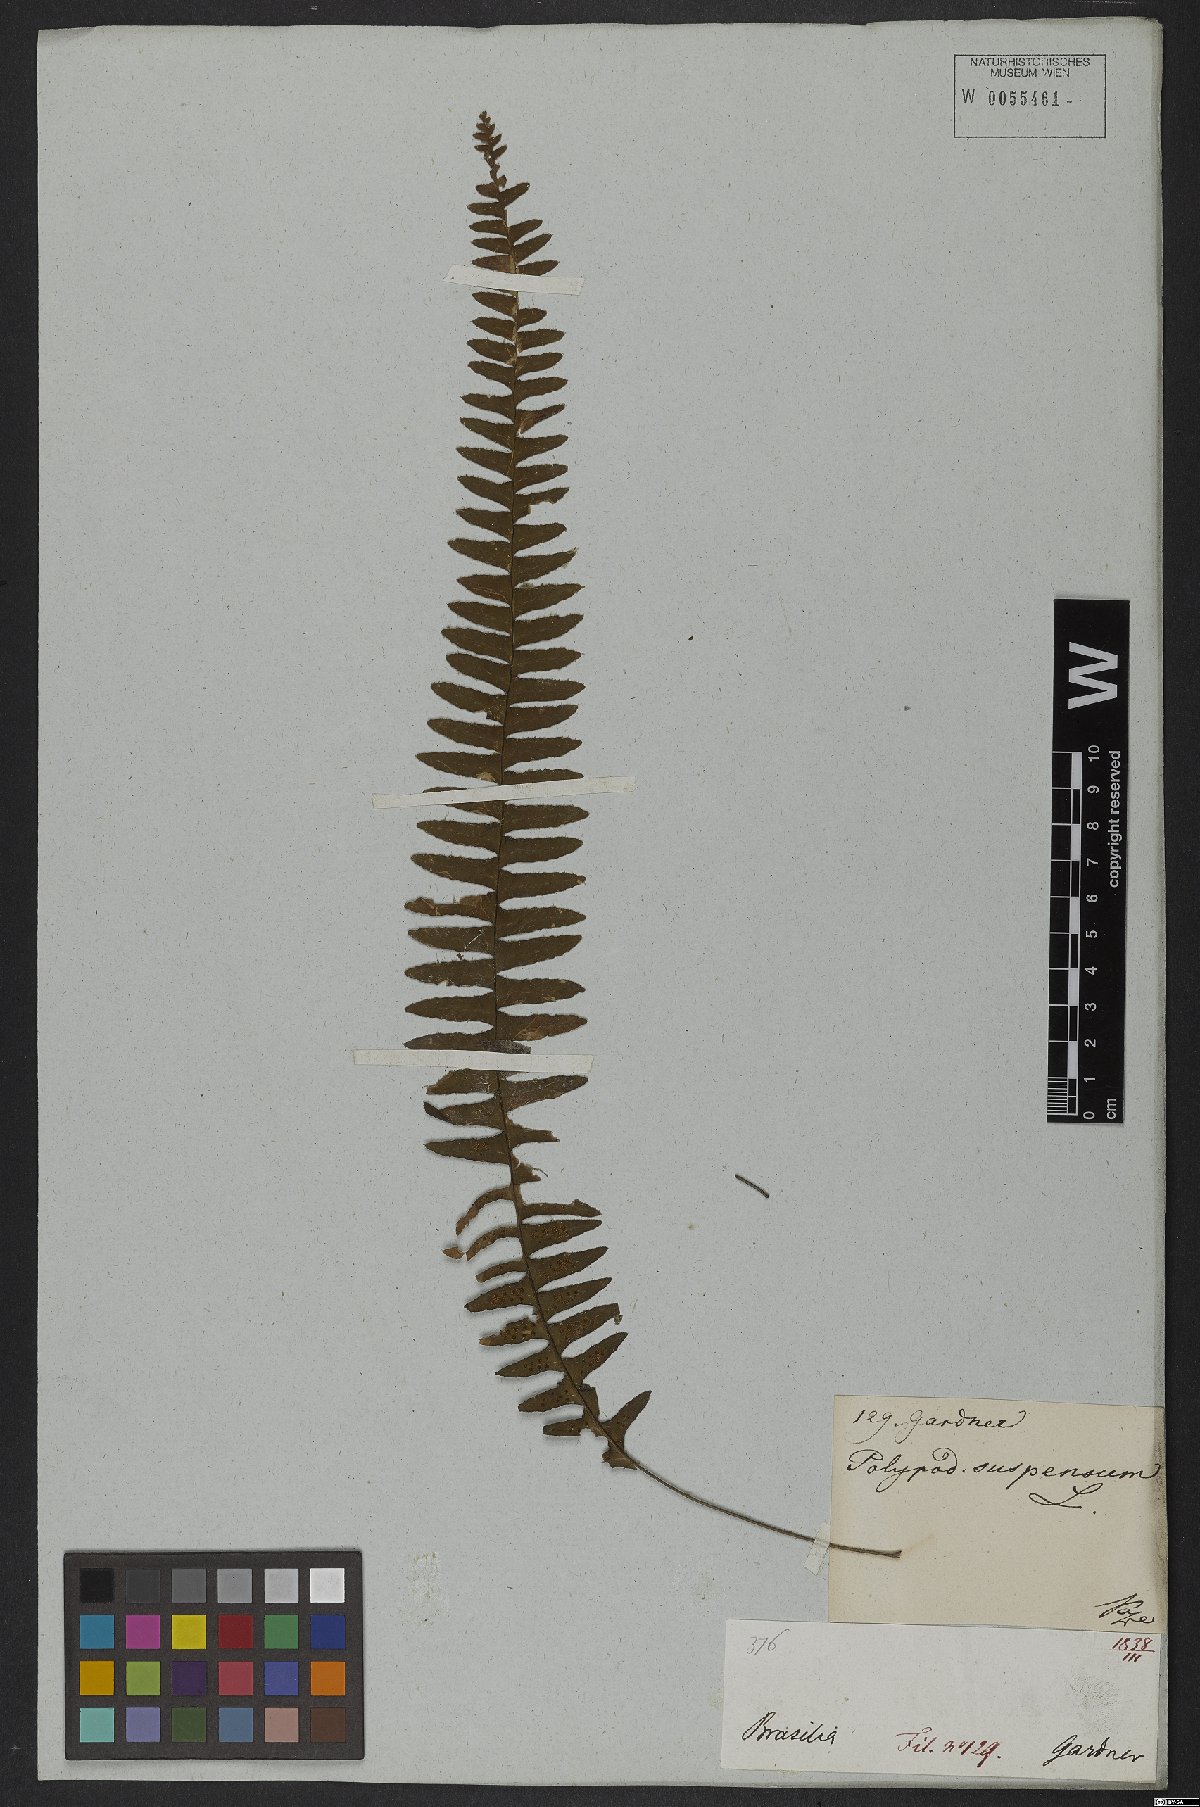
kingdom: Plantae
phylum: Tracheophyta
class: Polypodiopsida
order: Polypodiales
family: Polypodiaceae
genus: Lellingeria
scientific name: Lellingeria suspensa
